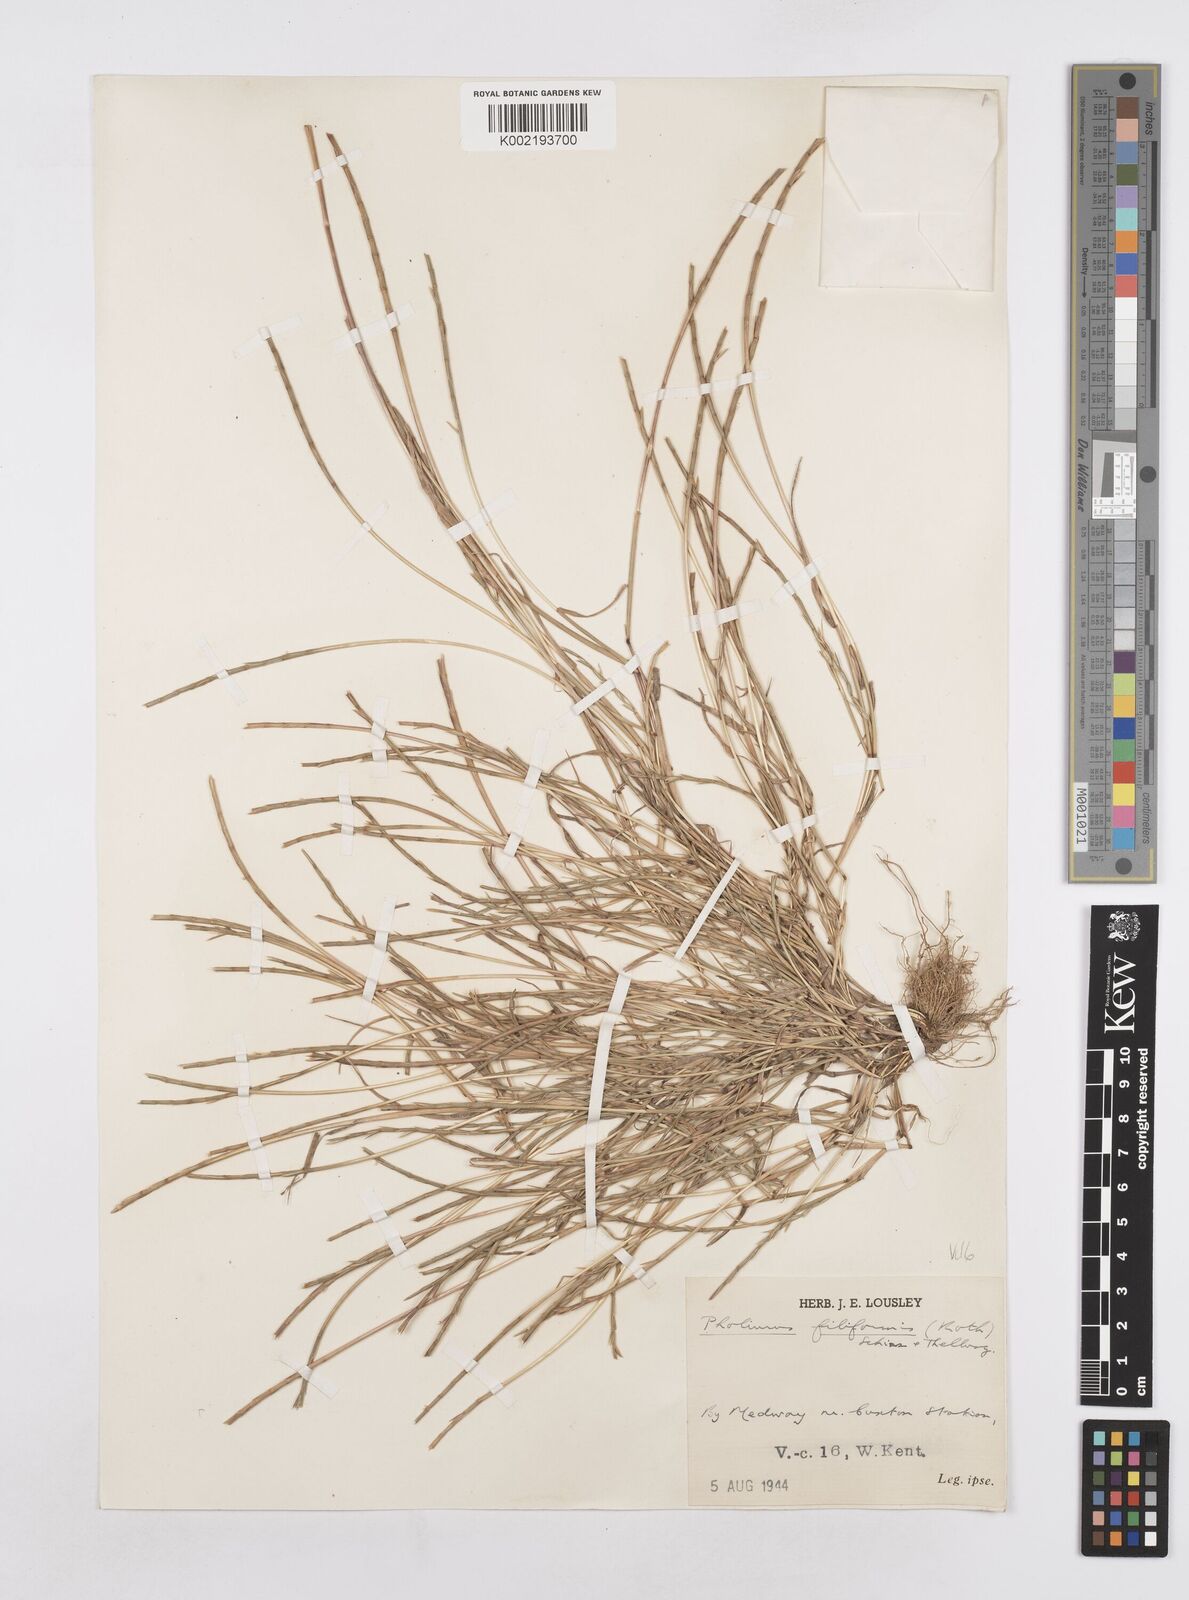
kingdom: Plantae
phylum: Tracheophyta
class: Liliopsida
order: Poales
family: Poaceae
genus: Parapholis
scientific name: Parapholis strigosa
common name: Hard-grass
